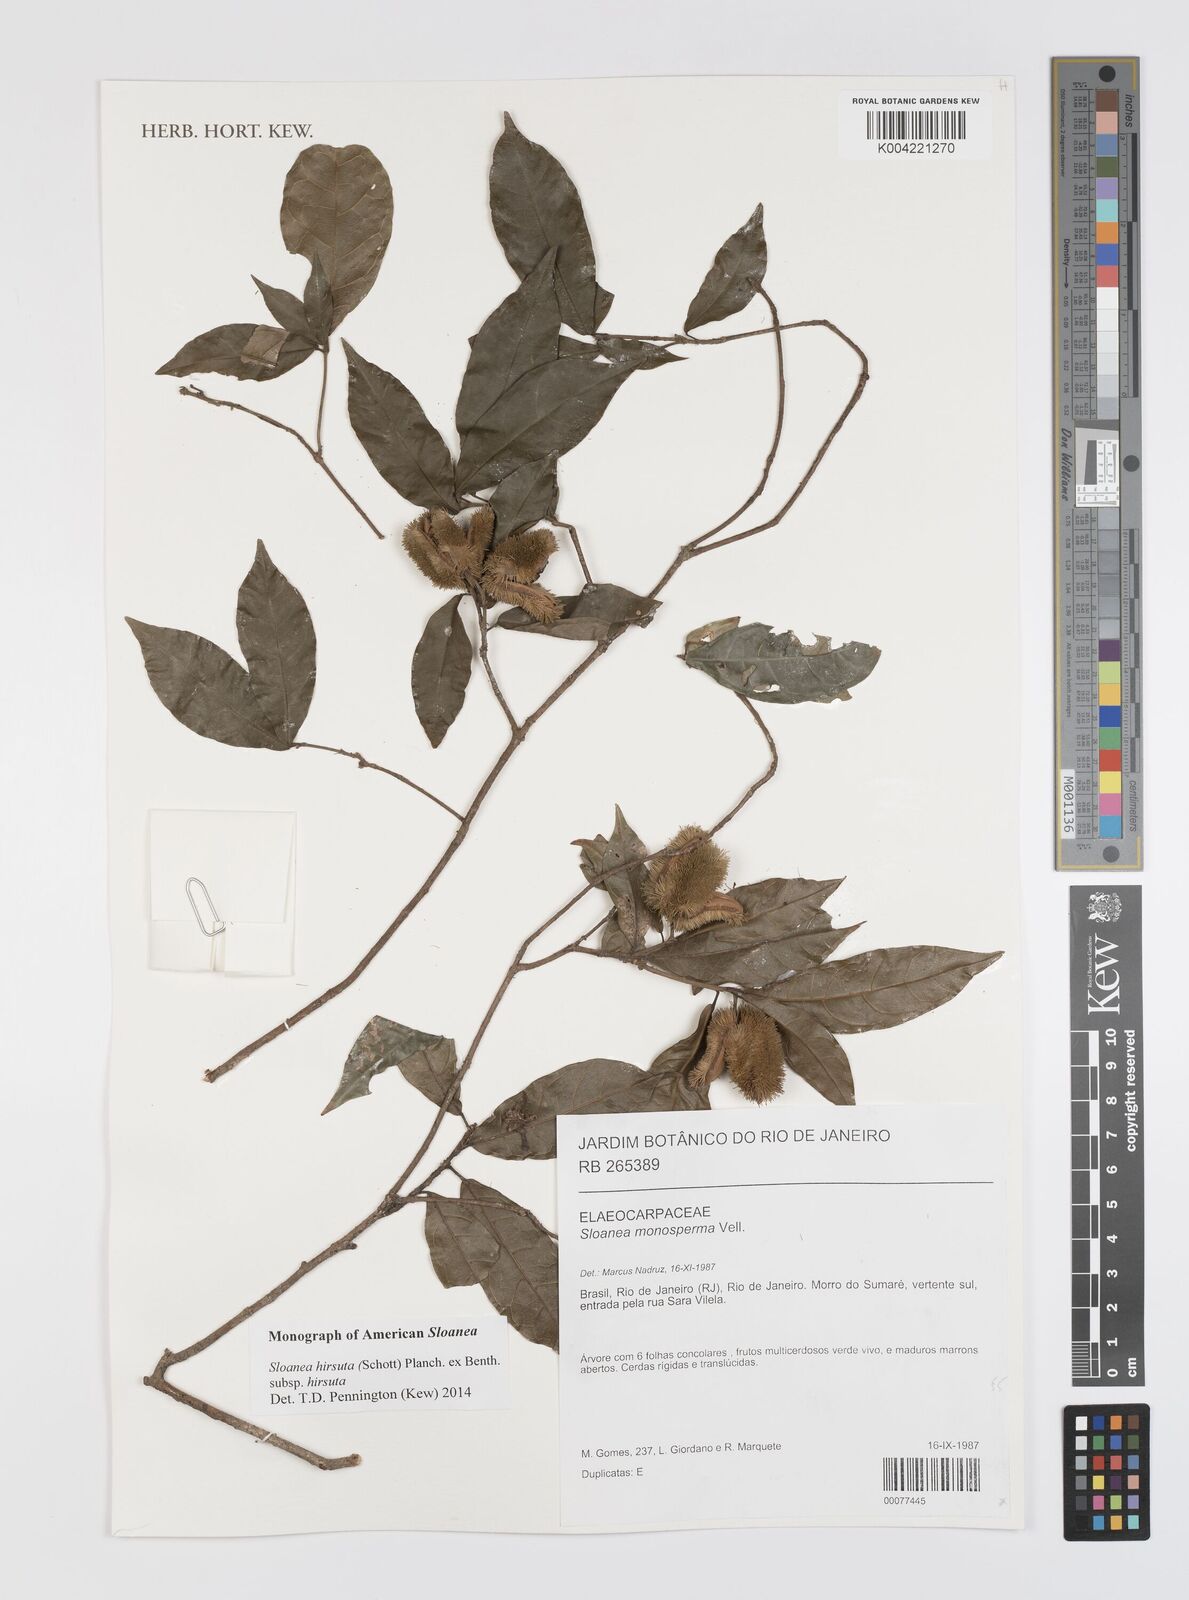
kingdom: Plantae
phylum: Tracheophyta
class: Magnoliopsida
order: Oxalidales
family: Elaeocarpaceae
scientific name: Elaeocarpaceae
